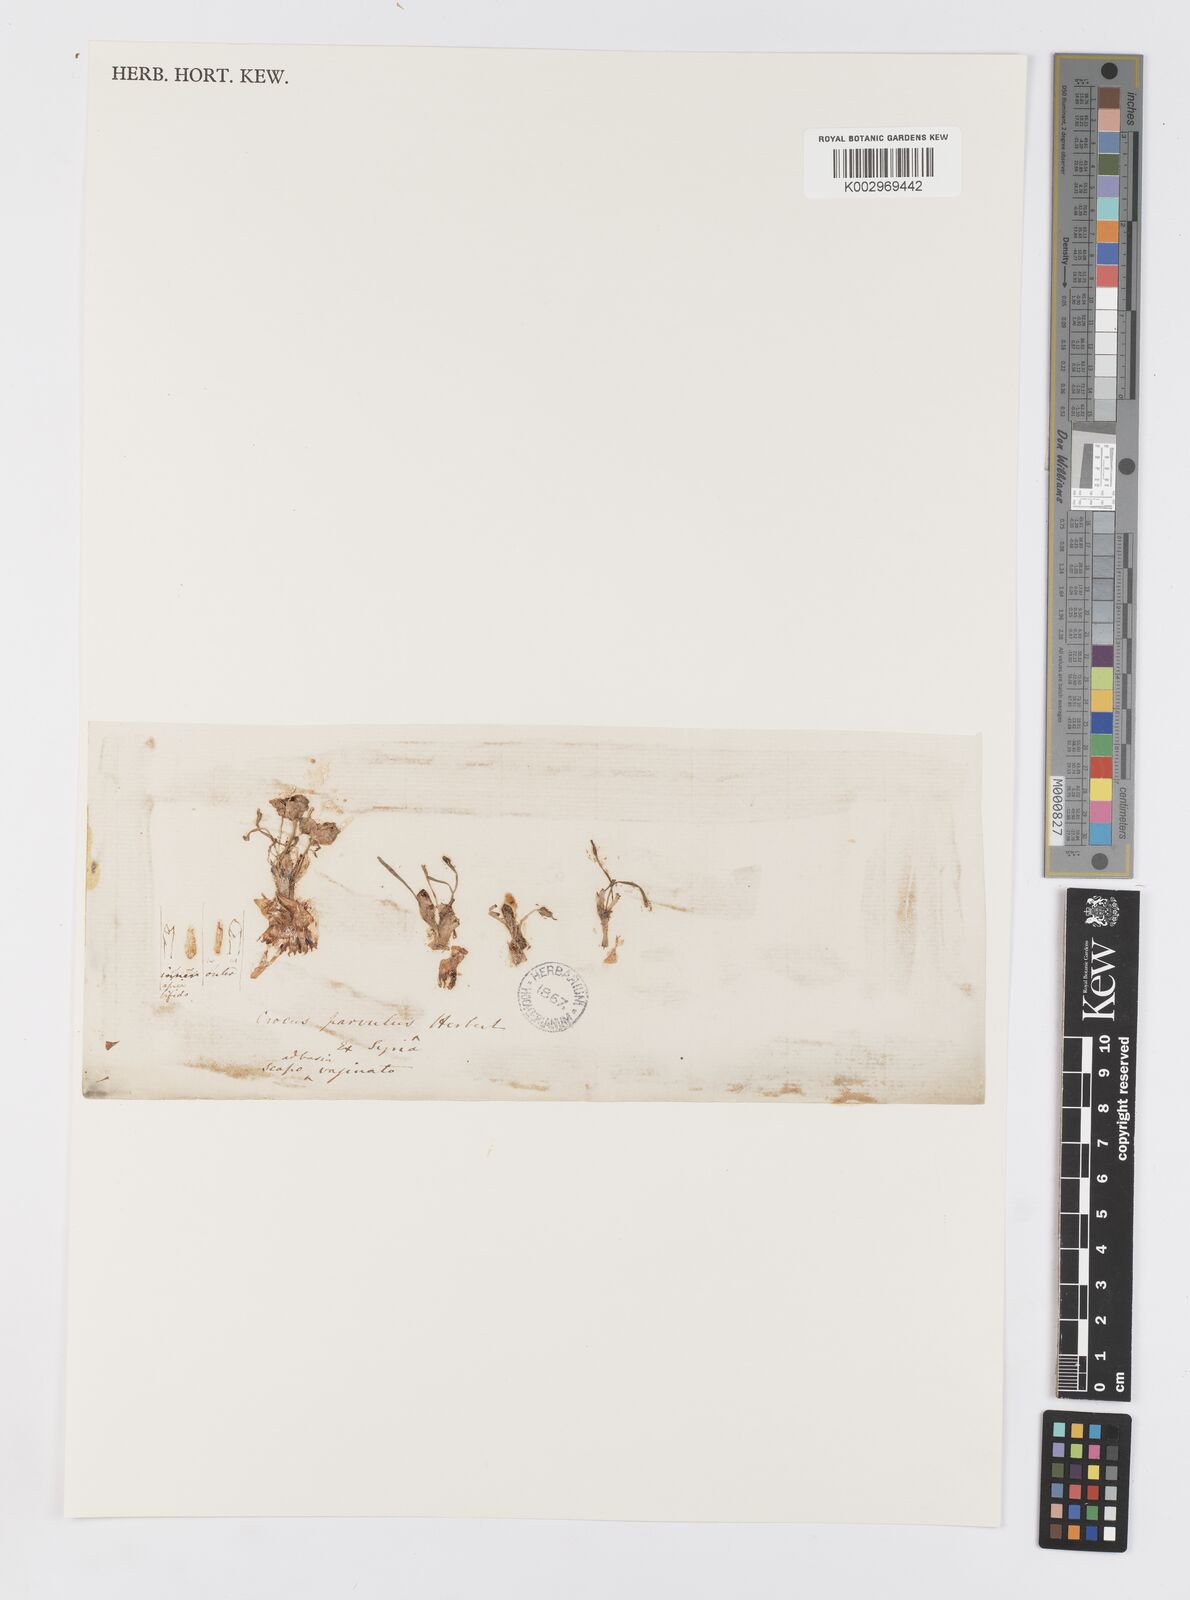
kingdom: Plantae
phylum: Tracheophyta
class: Liliopsida
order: Asparagales
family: Iridaceae
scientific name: Iridaceae
